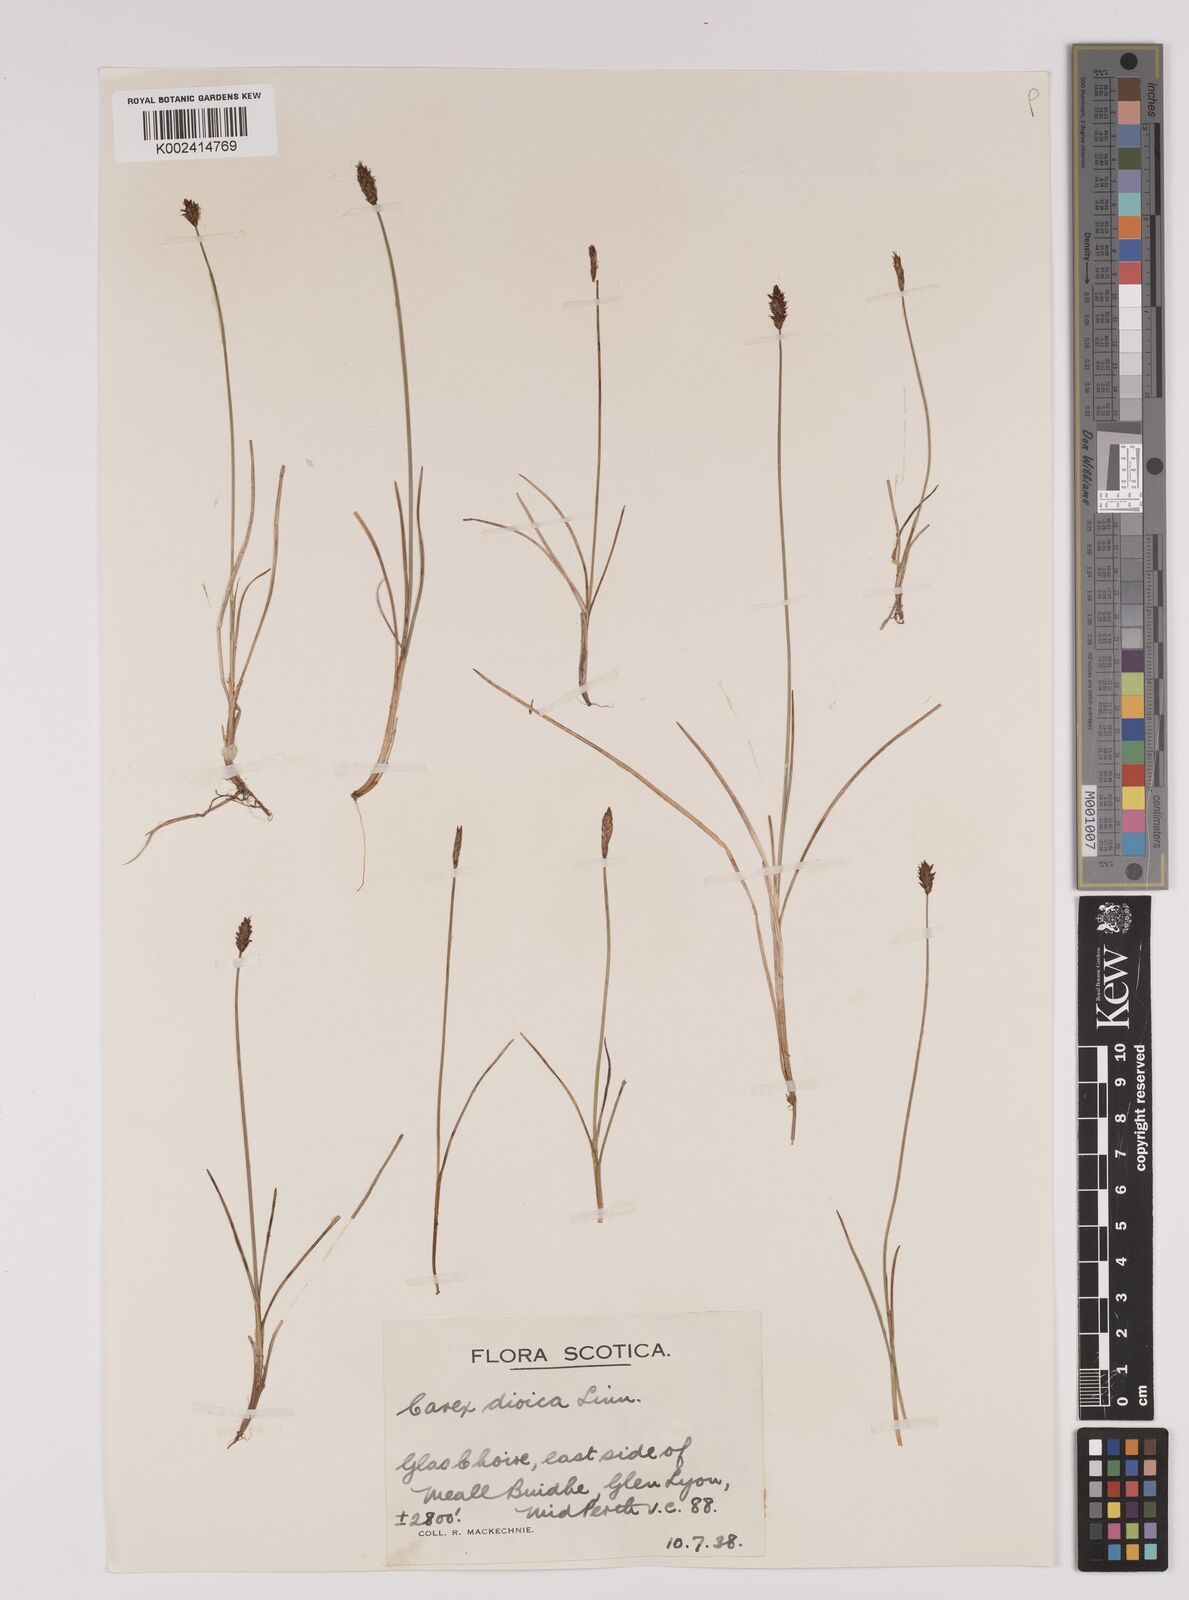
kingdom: Plantae
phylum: Tracheophyta
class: Liliopsida
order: Poales
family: Cyperaceae
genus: Carex
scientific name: Carex dioica
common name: Dioecious sedge
